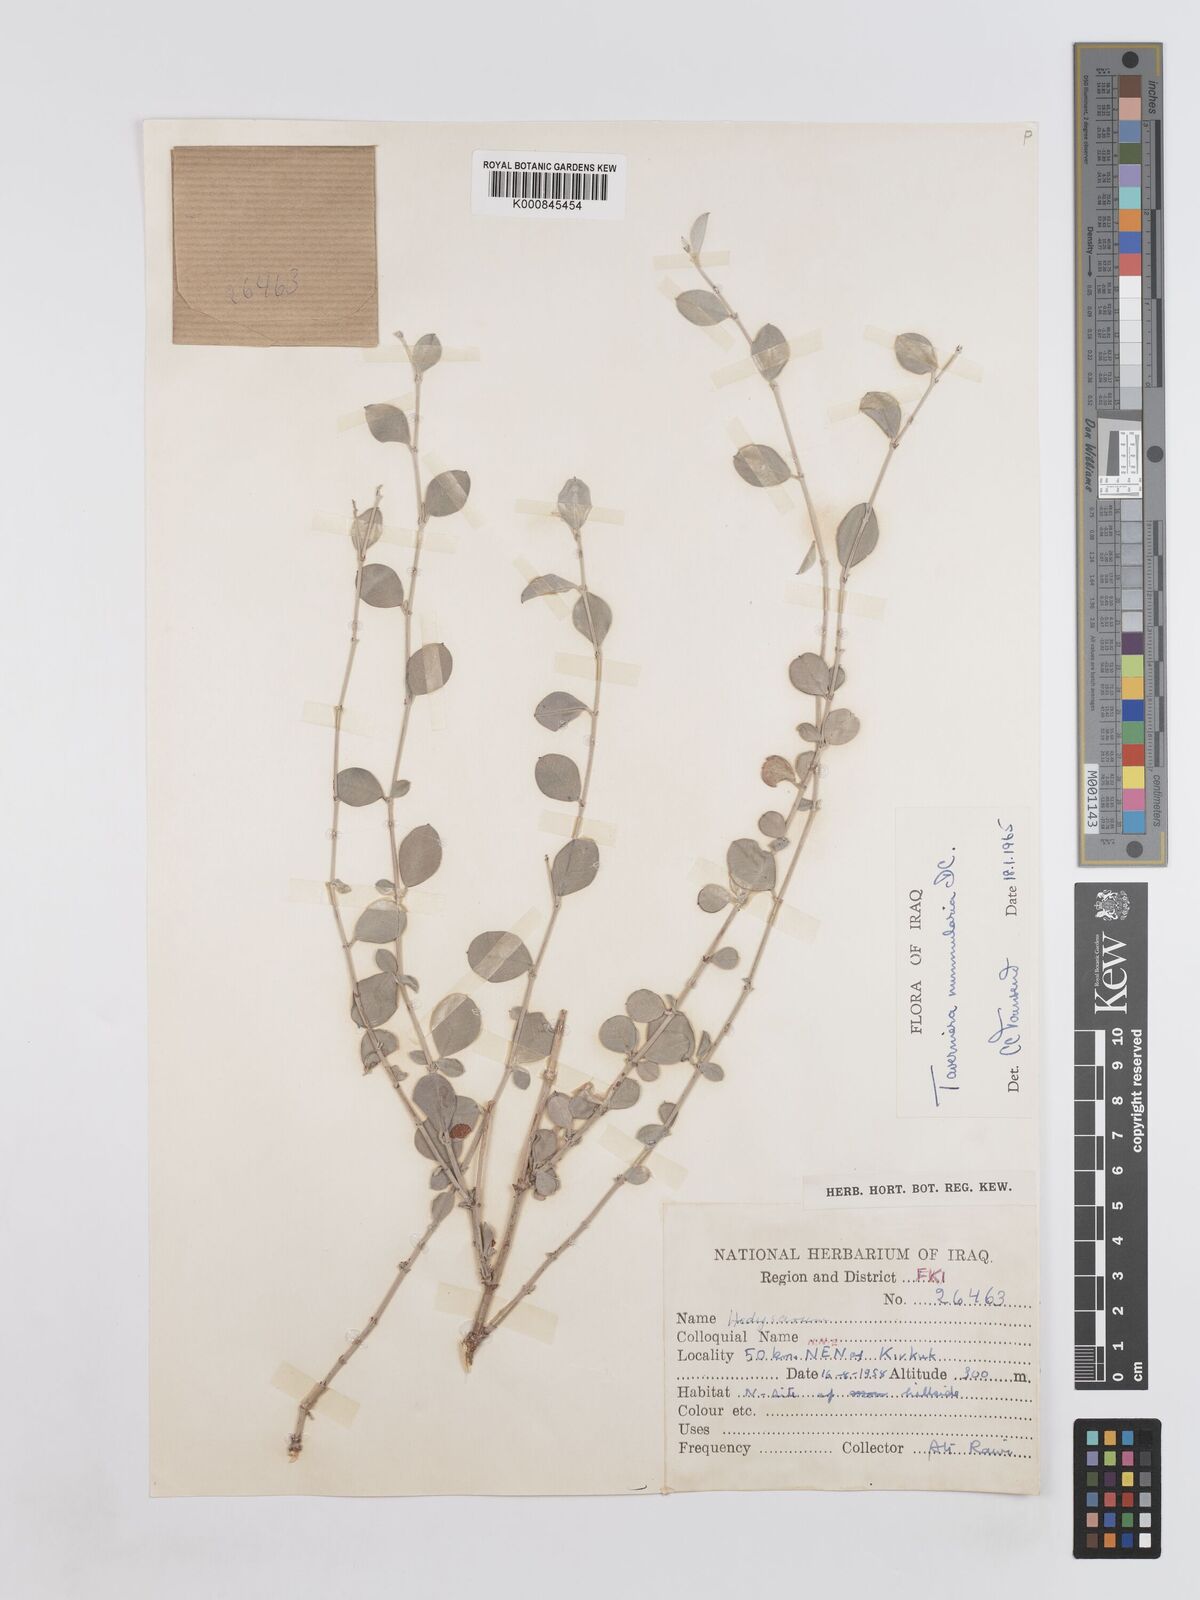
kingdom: Plantae
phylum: Tracheophyta
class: Magnoliopsida
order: Fabales
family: Fabaceae
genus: Taverniera
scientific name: Taverniera nummularia
